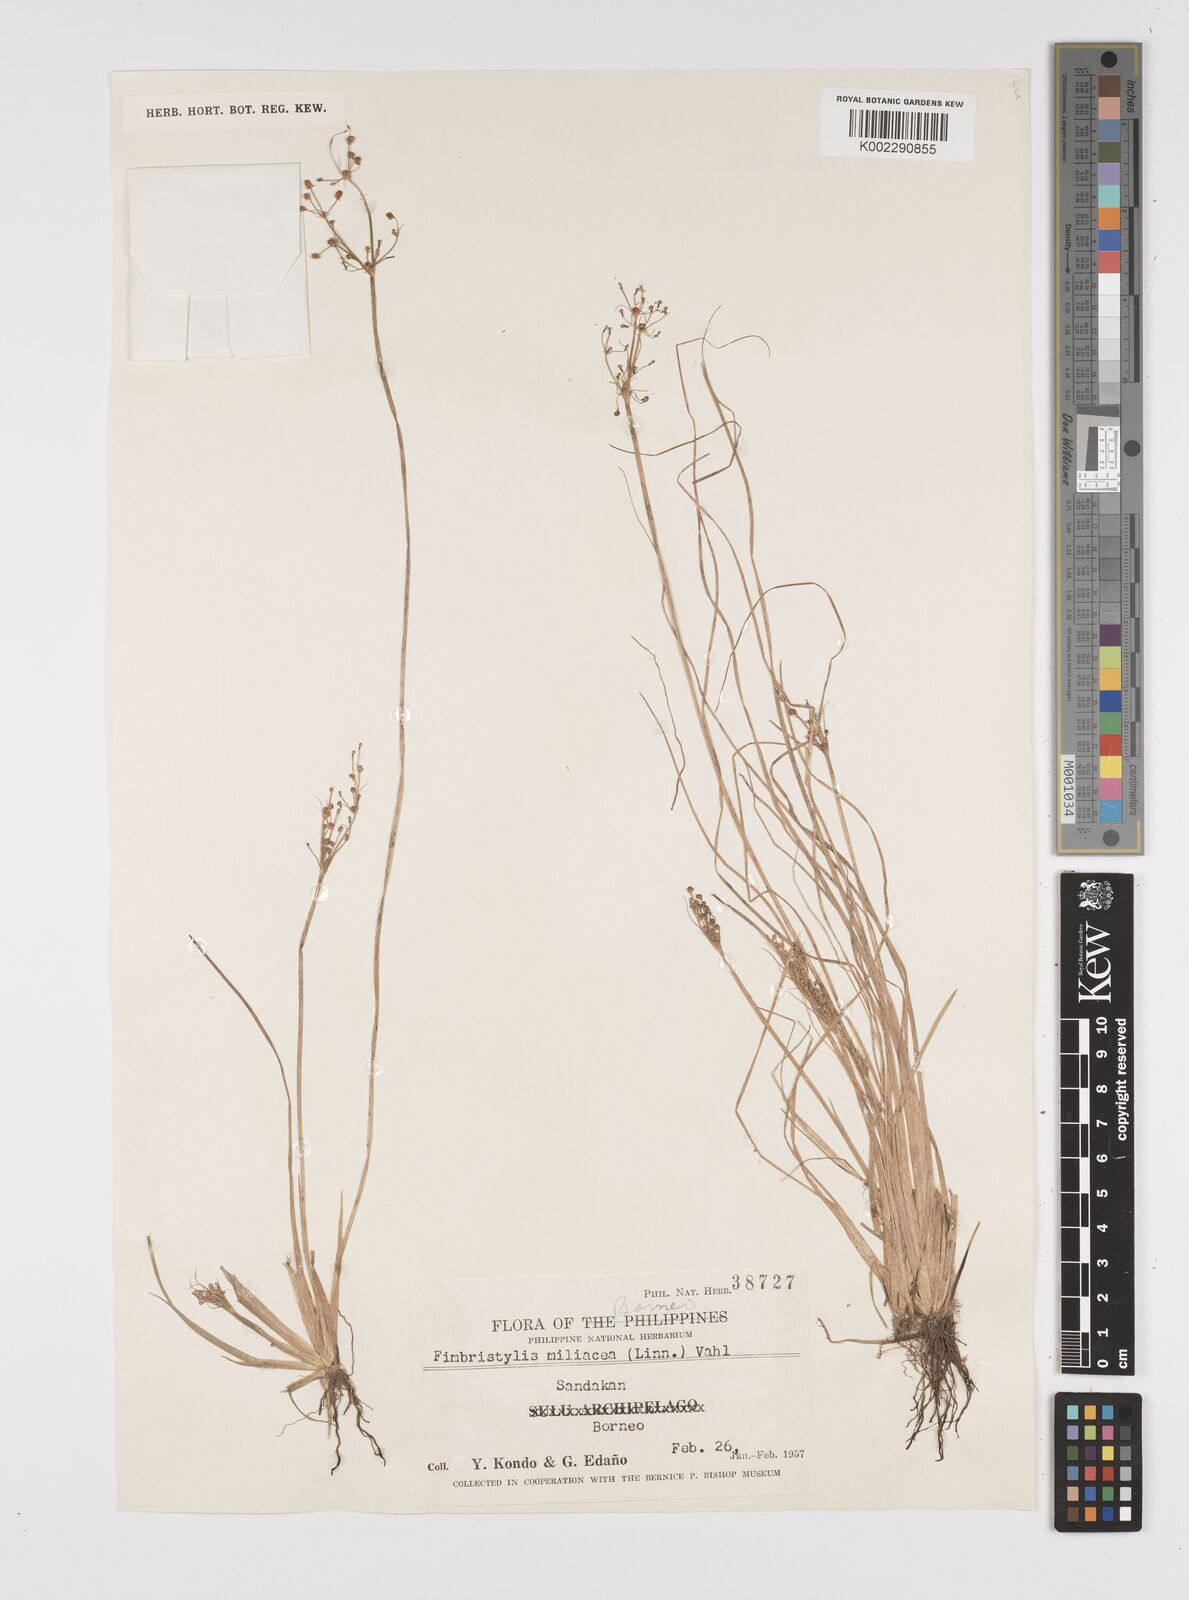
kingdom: Plantae
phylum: Tracheophyta
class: Liliopsida
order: Poales
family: Cyperaceae
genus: Fimbristylis
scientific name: Fimbristylis littoralis
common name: Fimbry
